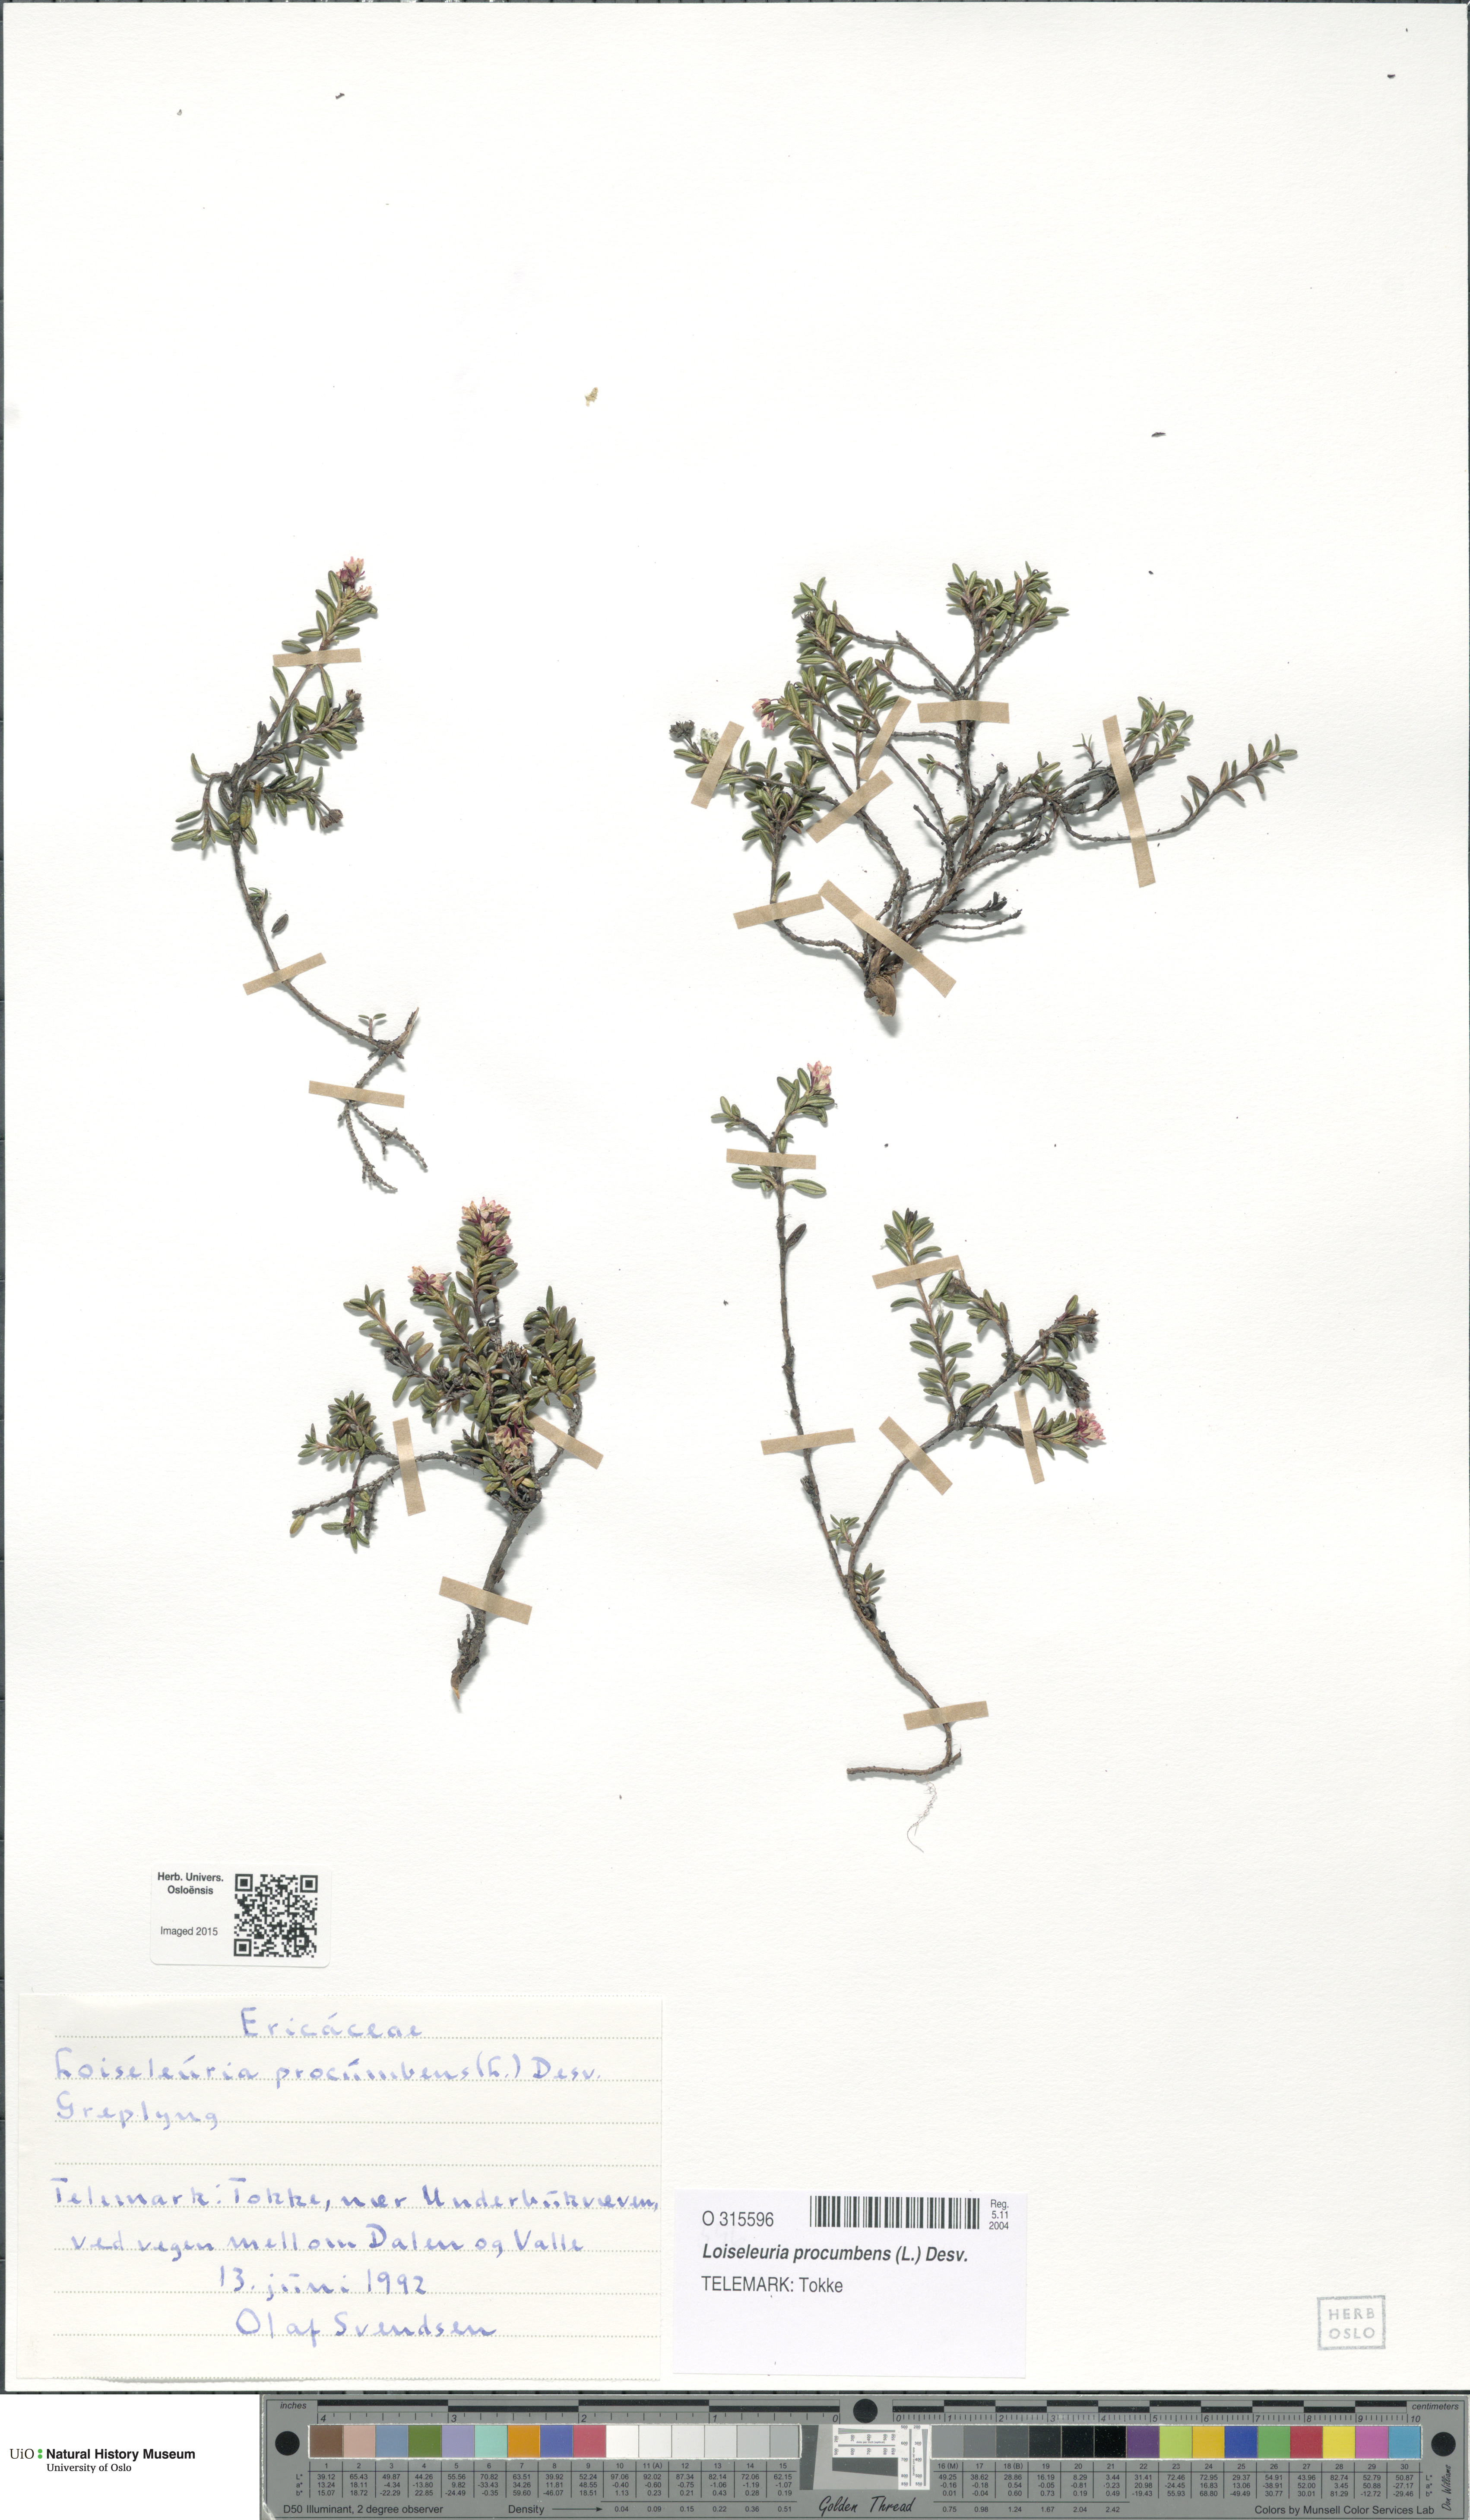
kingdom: Plantae
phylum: Tracheophyta
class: Magnoliopsida
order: Ericales
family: Ericaceae
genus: Kalmia
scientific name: Kalmia procumbens
